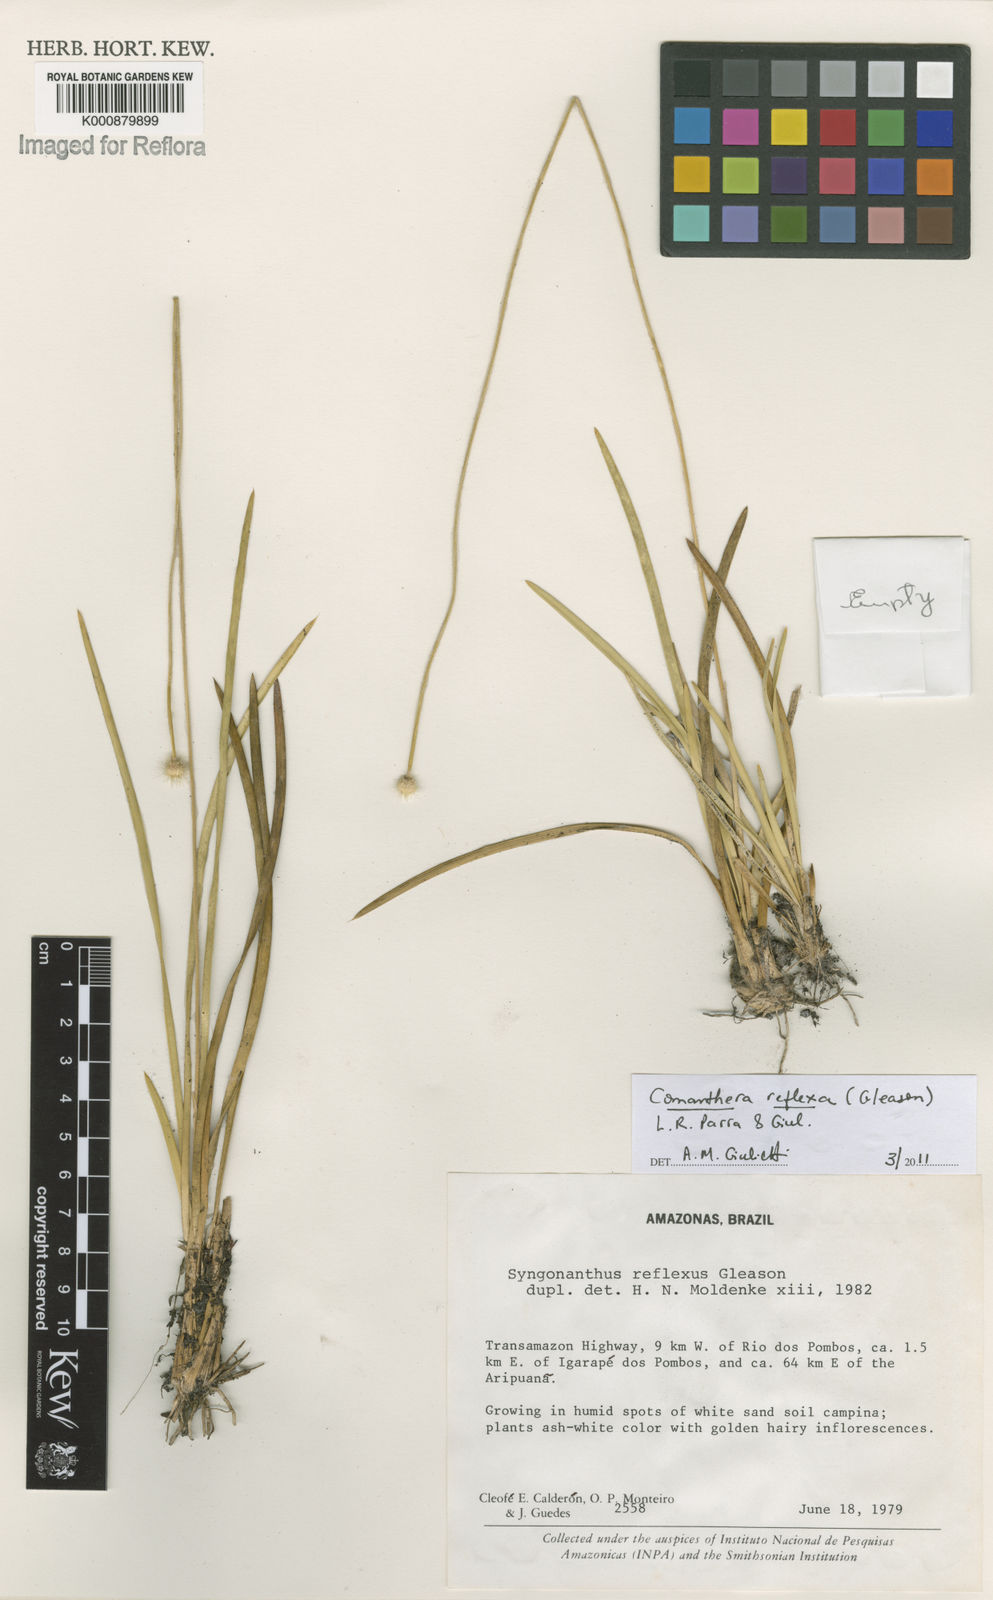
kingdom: Plantae
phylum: Tracheophyta
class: Liliopsida
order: Poales
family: Eriocaulaceae
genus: Comanthera
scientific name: Comanthera reflexa
